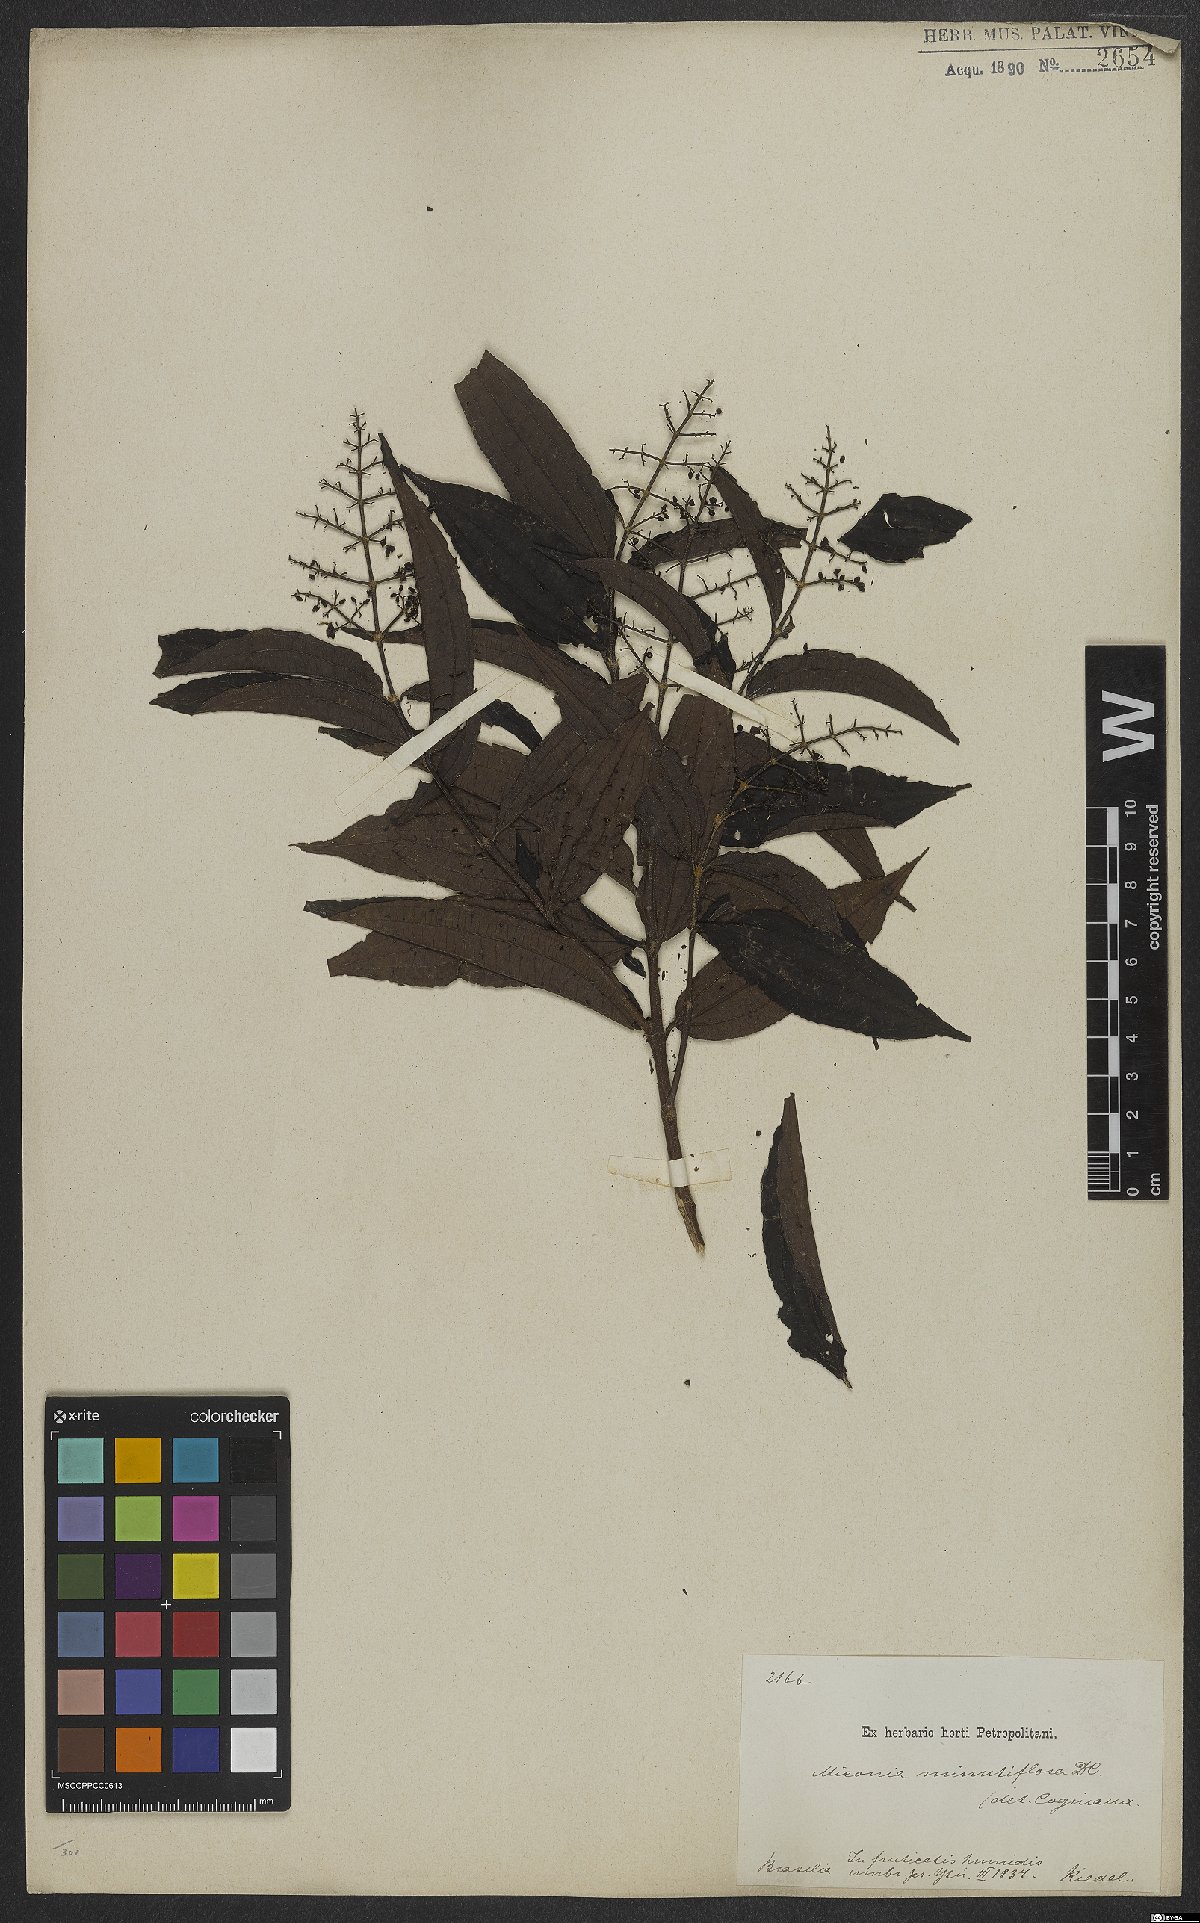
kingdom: Plantae
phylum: Tracheophyta
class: Magnoliopsida
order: Myrtales
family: Melastomataceae
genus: Miconia
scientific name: Miconia minutiflora
